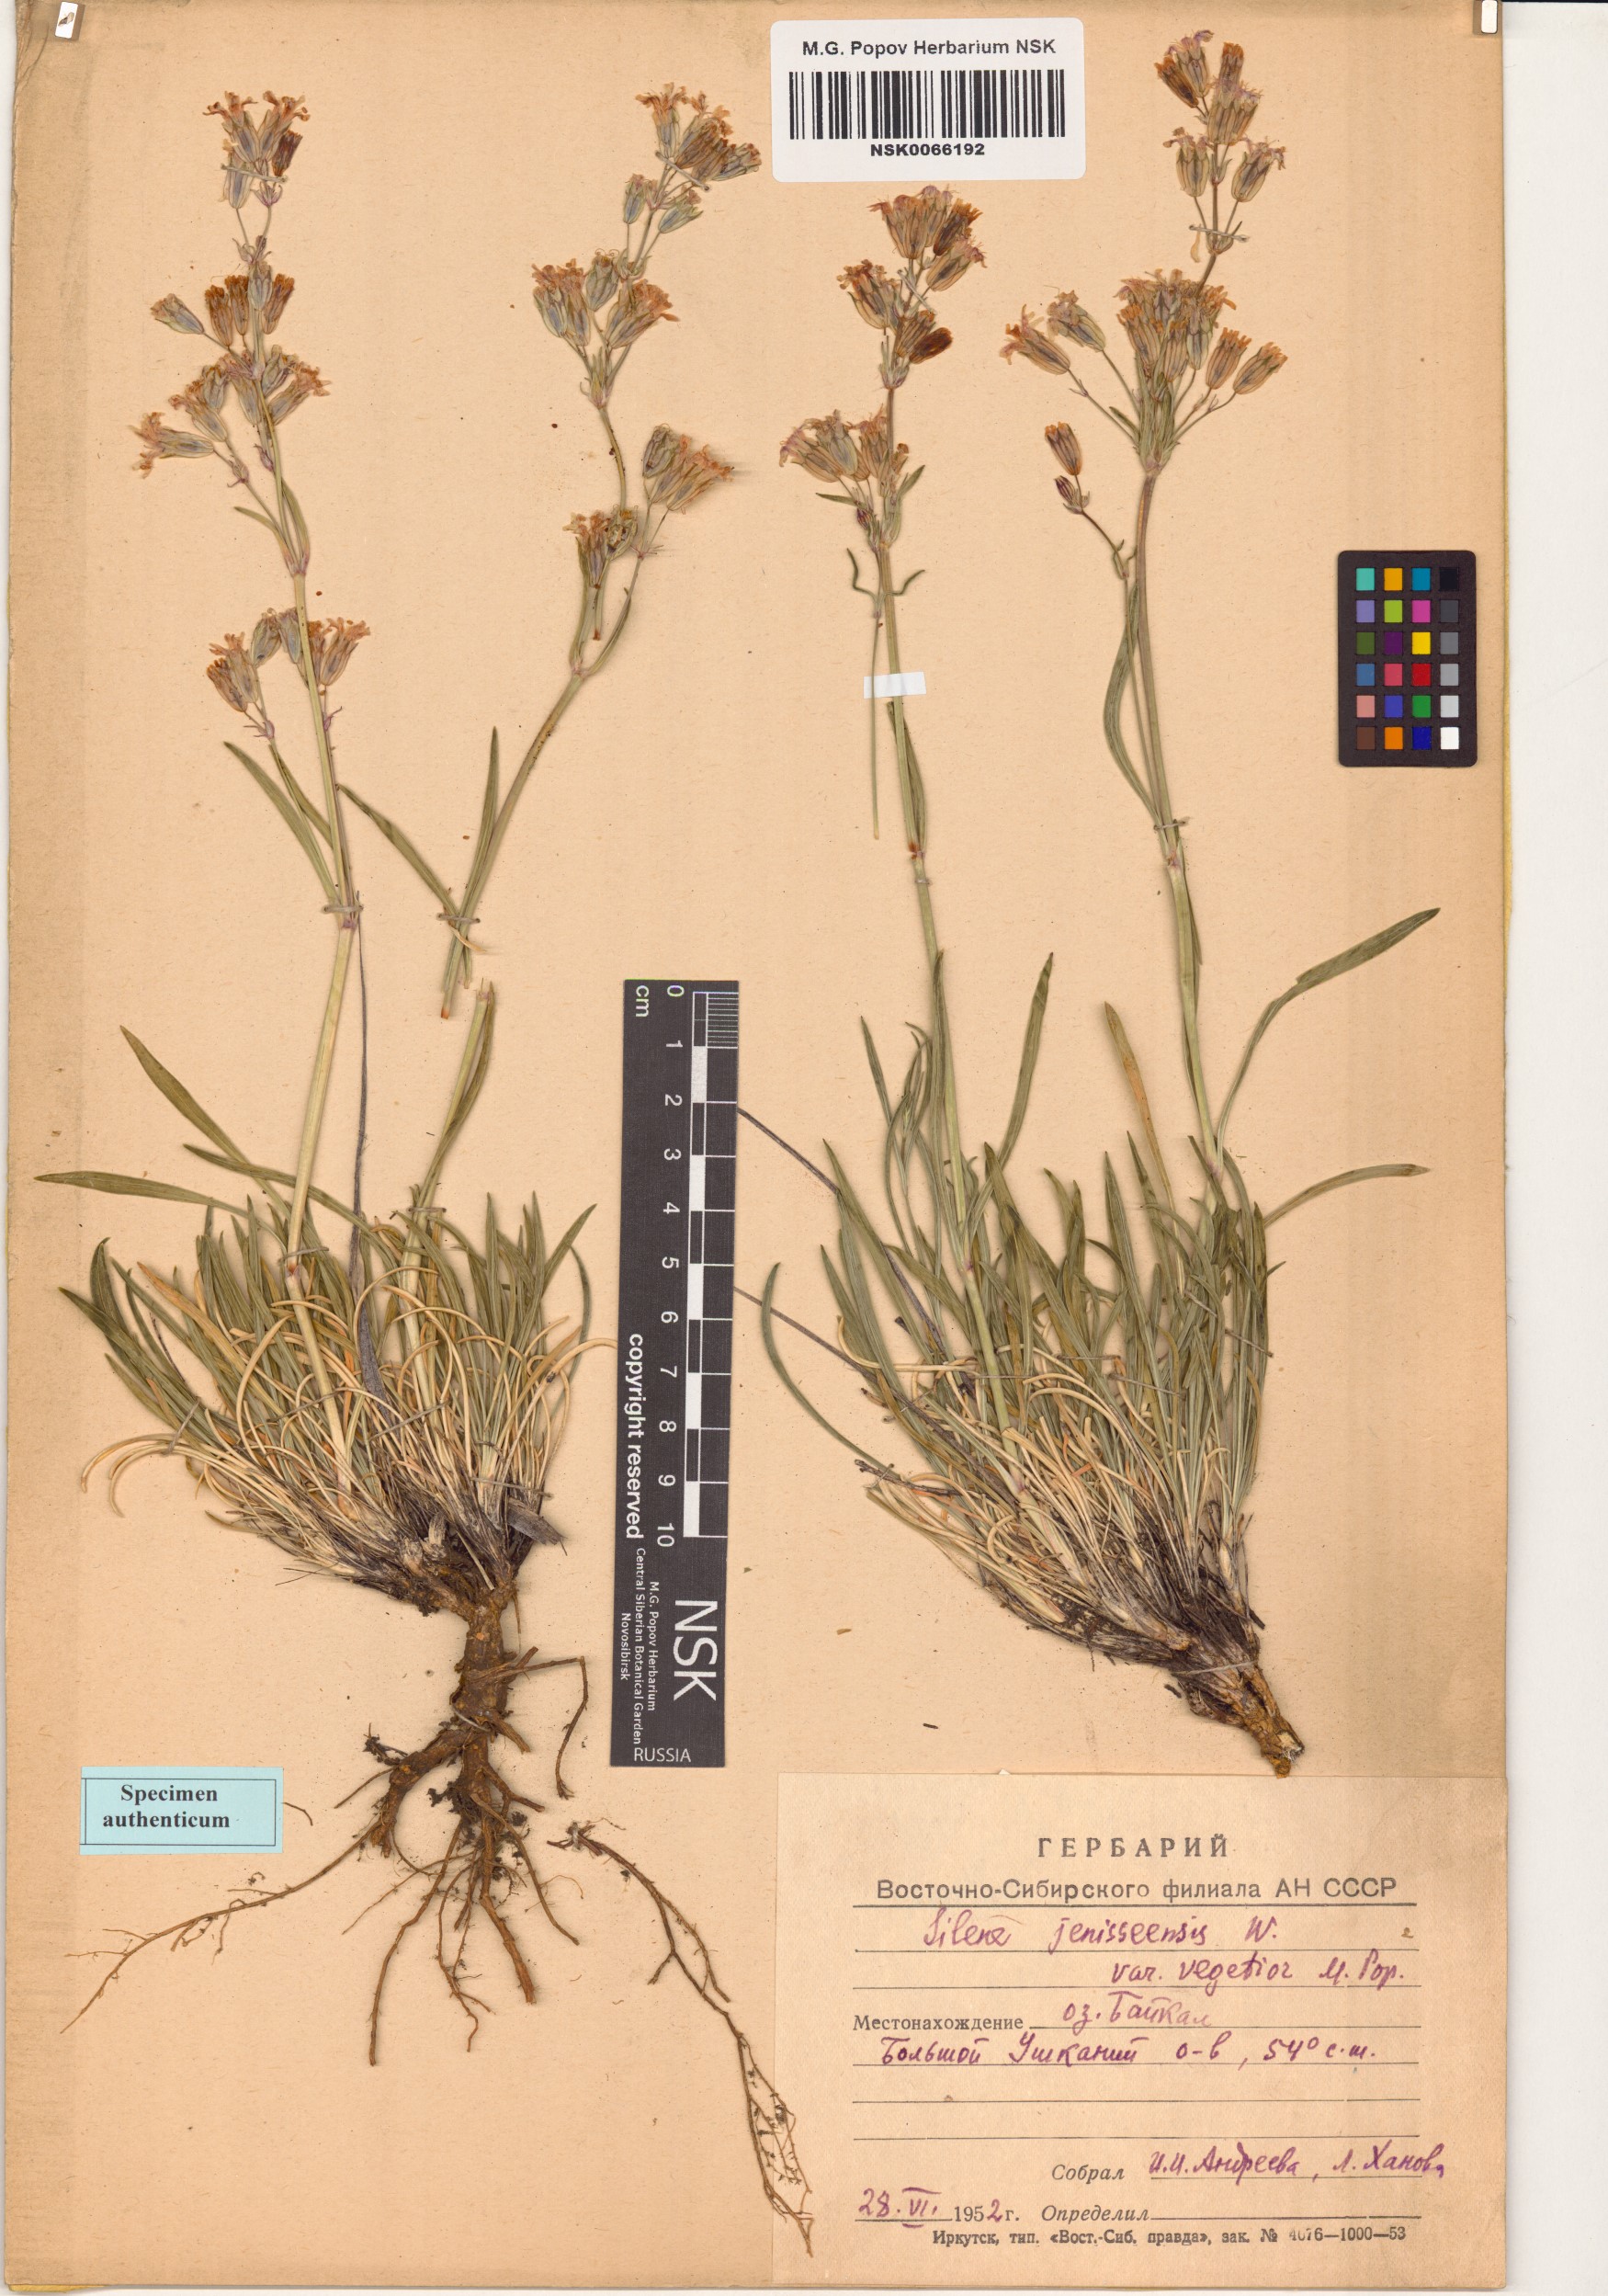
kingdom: Plantae
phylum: Tracheophyta
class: Magnoliopsida
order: Caryophyllales
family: Caryophyllaceae
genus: Silene
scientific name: Silene jeniseensis
